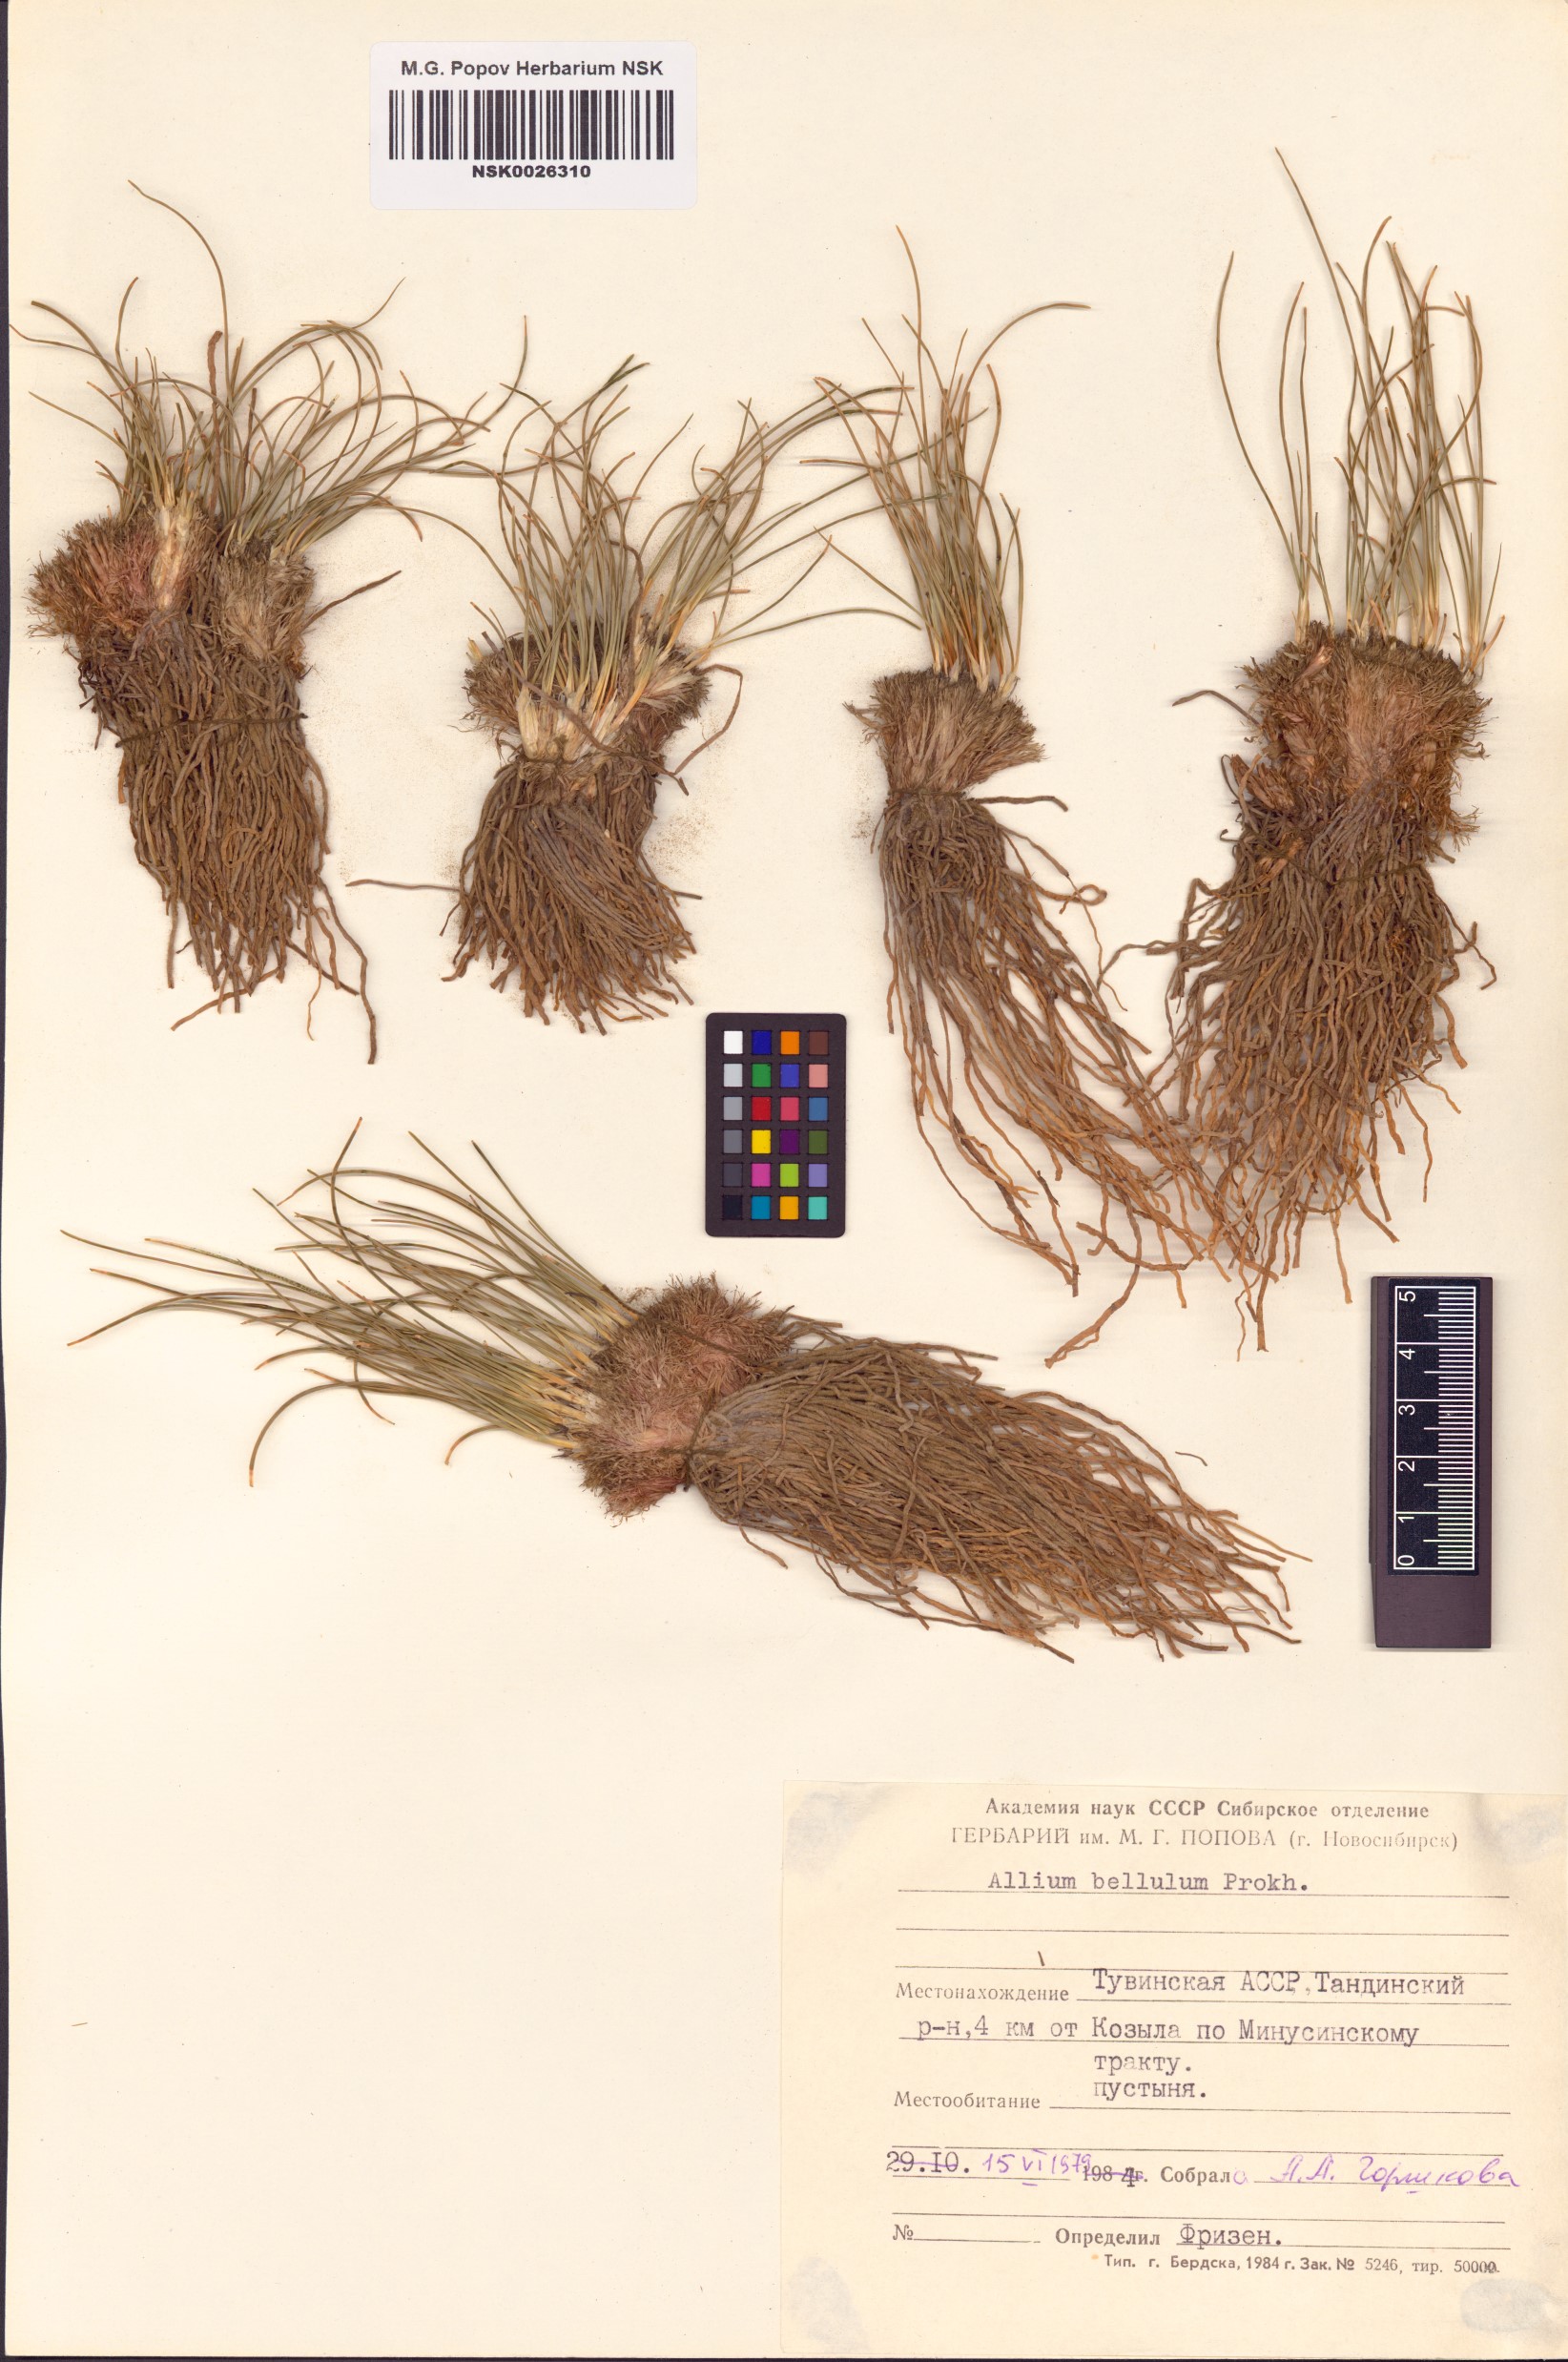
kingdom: Plantae
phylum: Tracheophyta
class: Liliopsida
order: Asparagales
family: Amaryllidaceae
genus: Allium
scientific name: Allium bellulum
